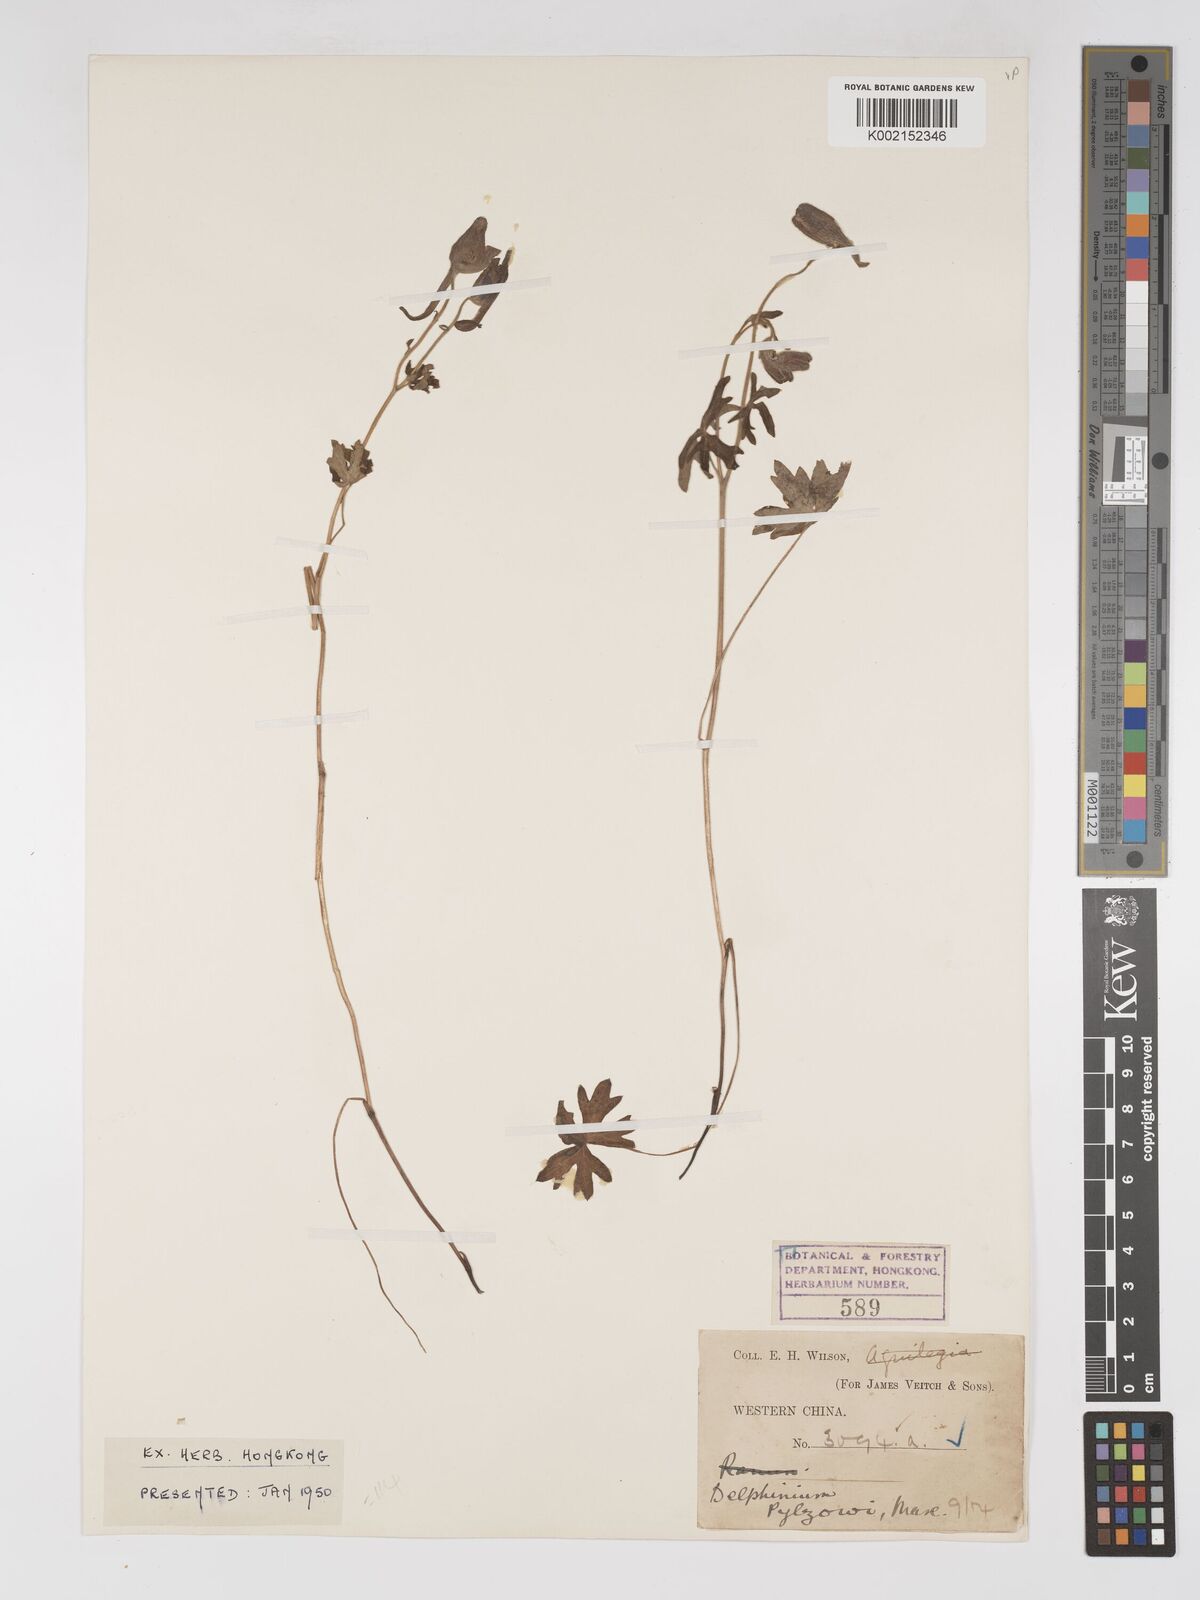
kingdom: Plantae
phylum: Tracheophyta
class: Magnoliopsida
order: Ranunculales
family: Ranunculaceae
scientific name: Ranunculaceae
